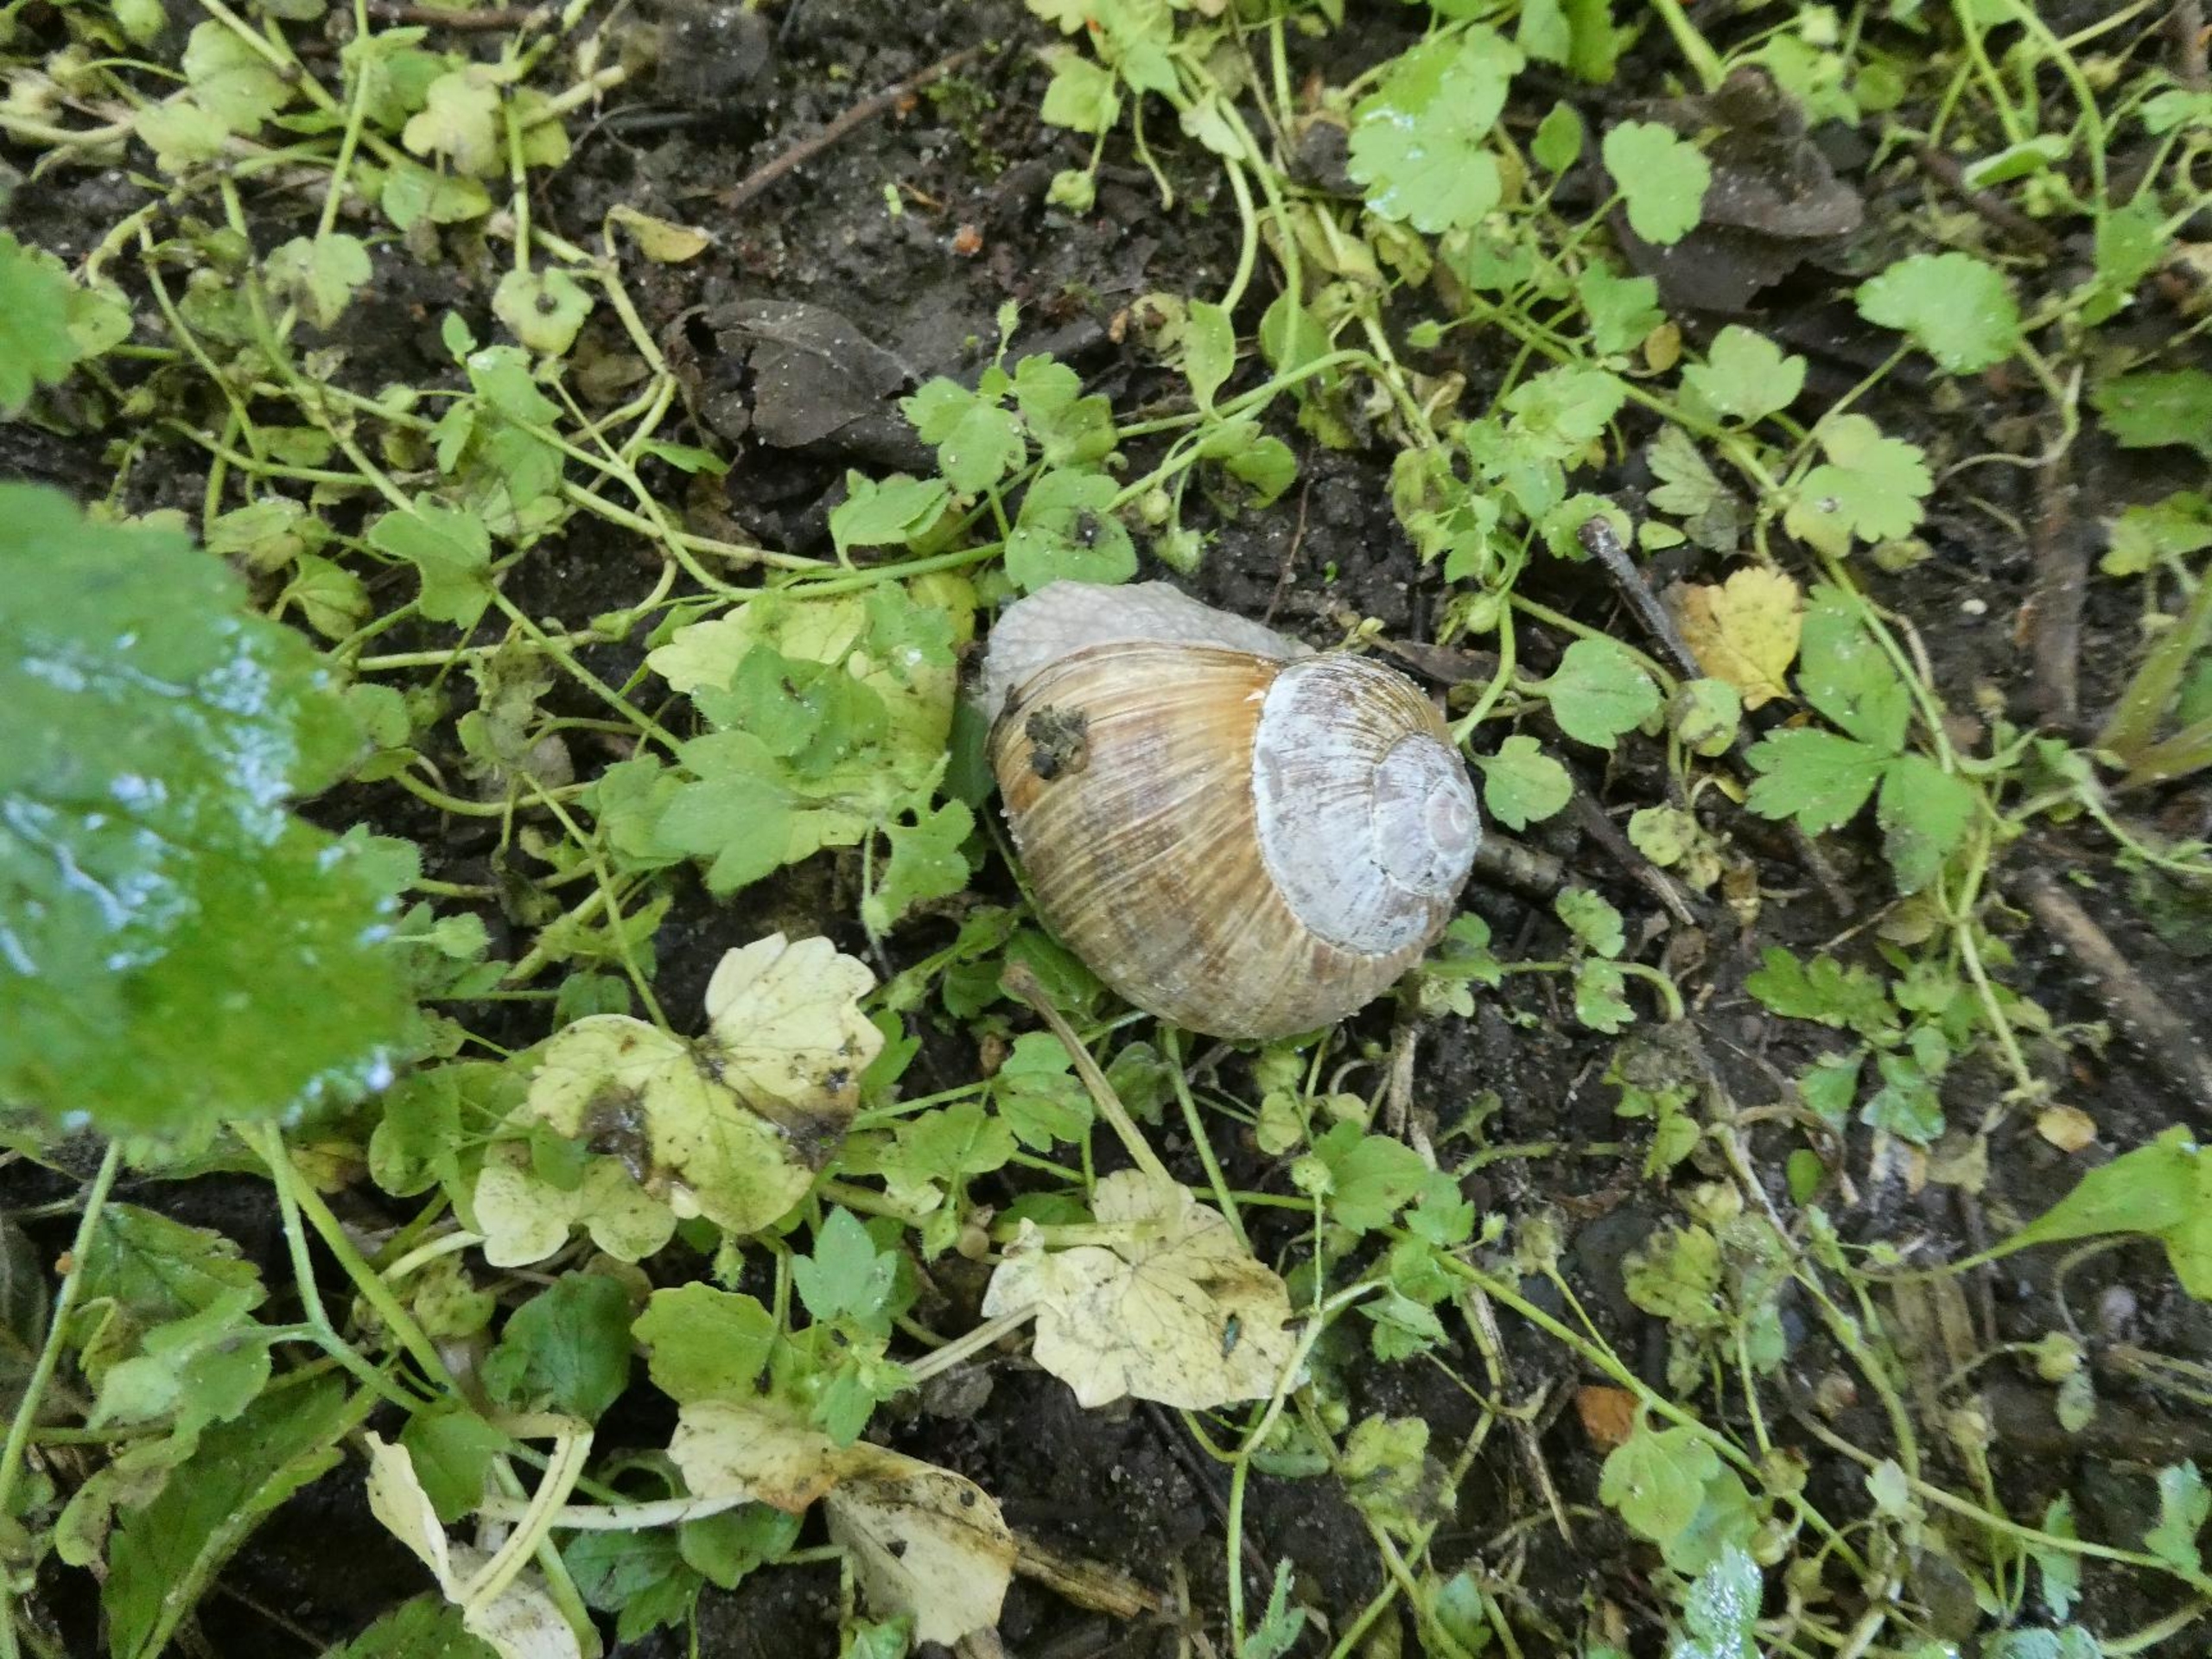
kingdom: Animalia
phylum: Mollusca
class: Gastropoda
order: Stylommatophora
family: Helicidae
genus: Helix
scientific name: Helix pomatia
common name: Vinbjergsnegl
